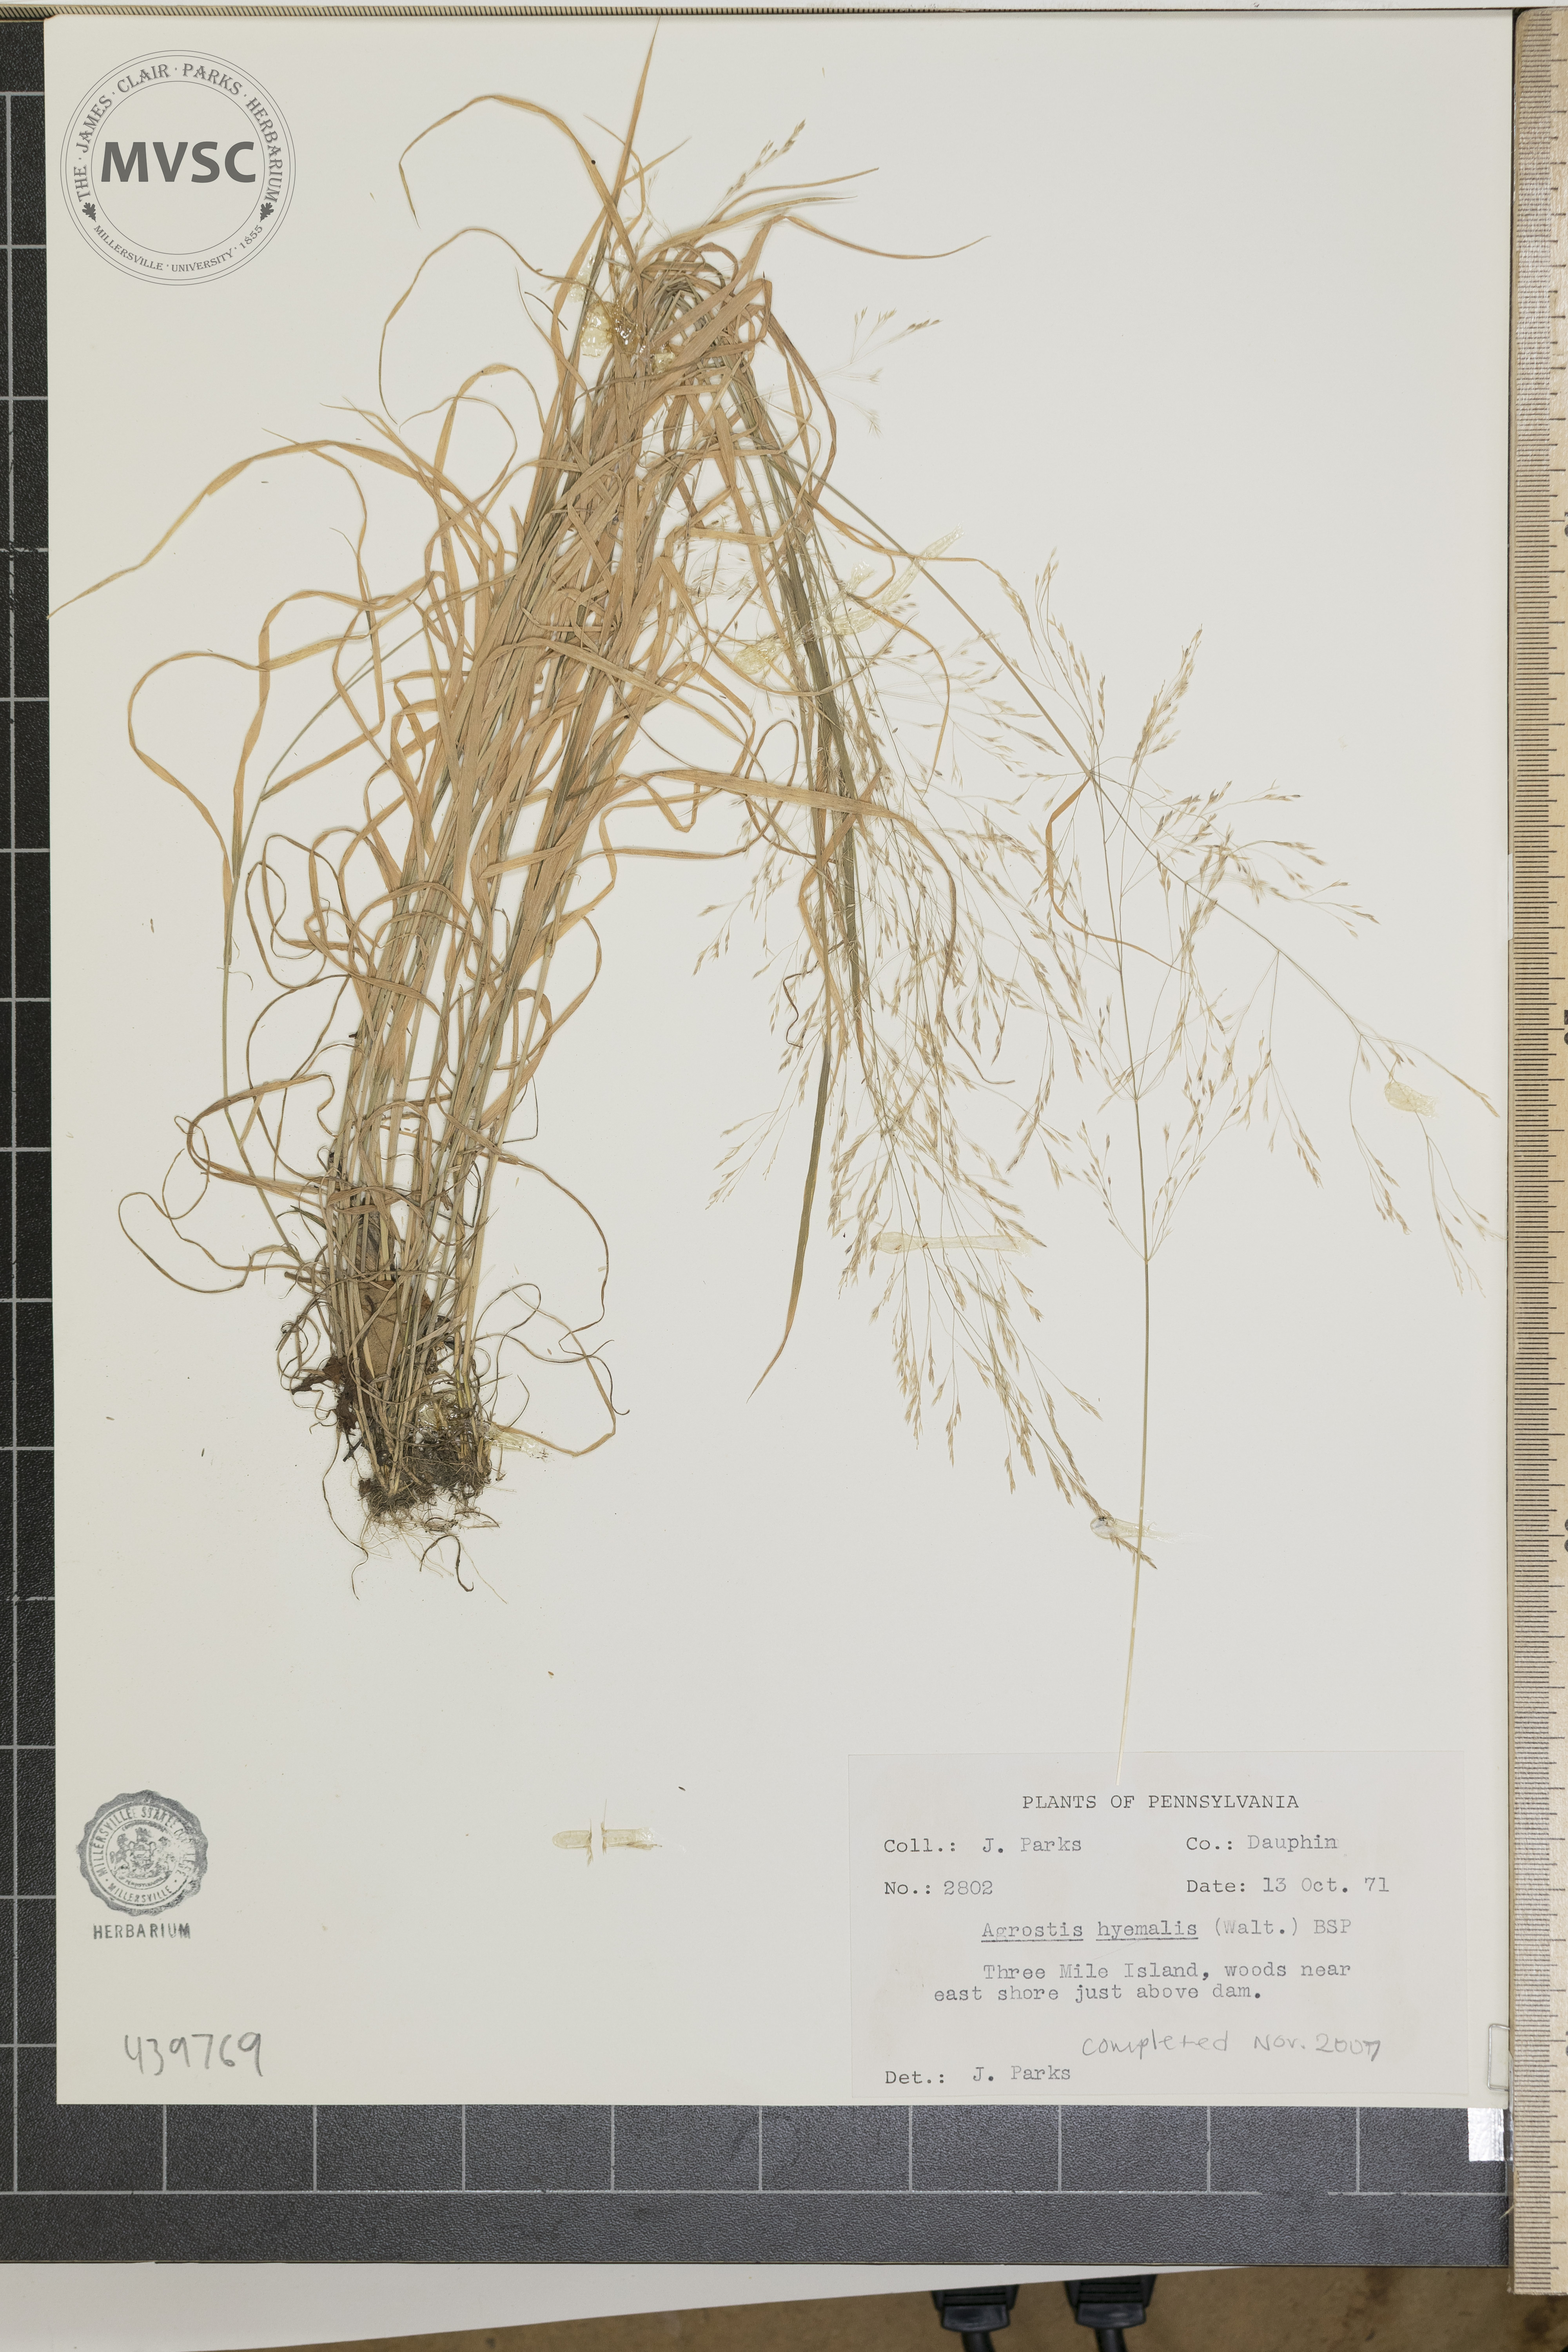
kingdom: Plantae
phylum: Tracheophyta
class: Liliopsida
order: Poales
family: Poaceae
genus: Agrostis
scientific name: Agrostis hyemalis
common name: Small bent
